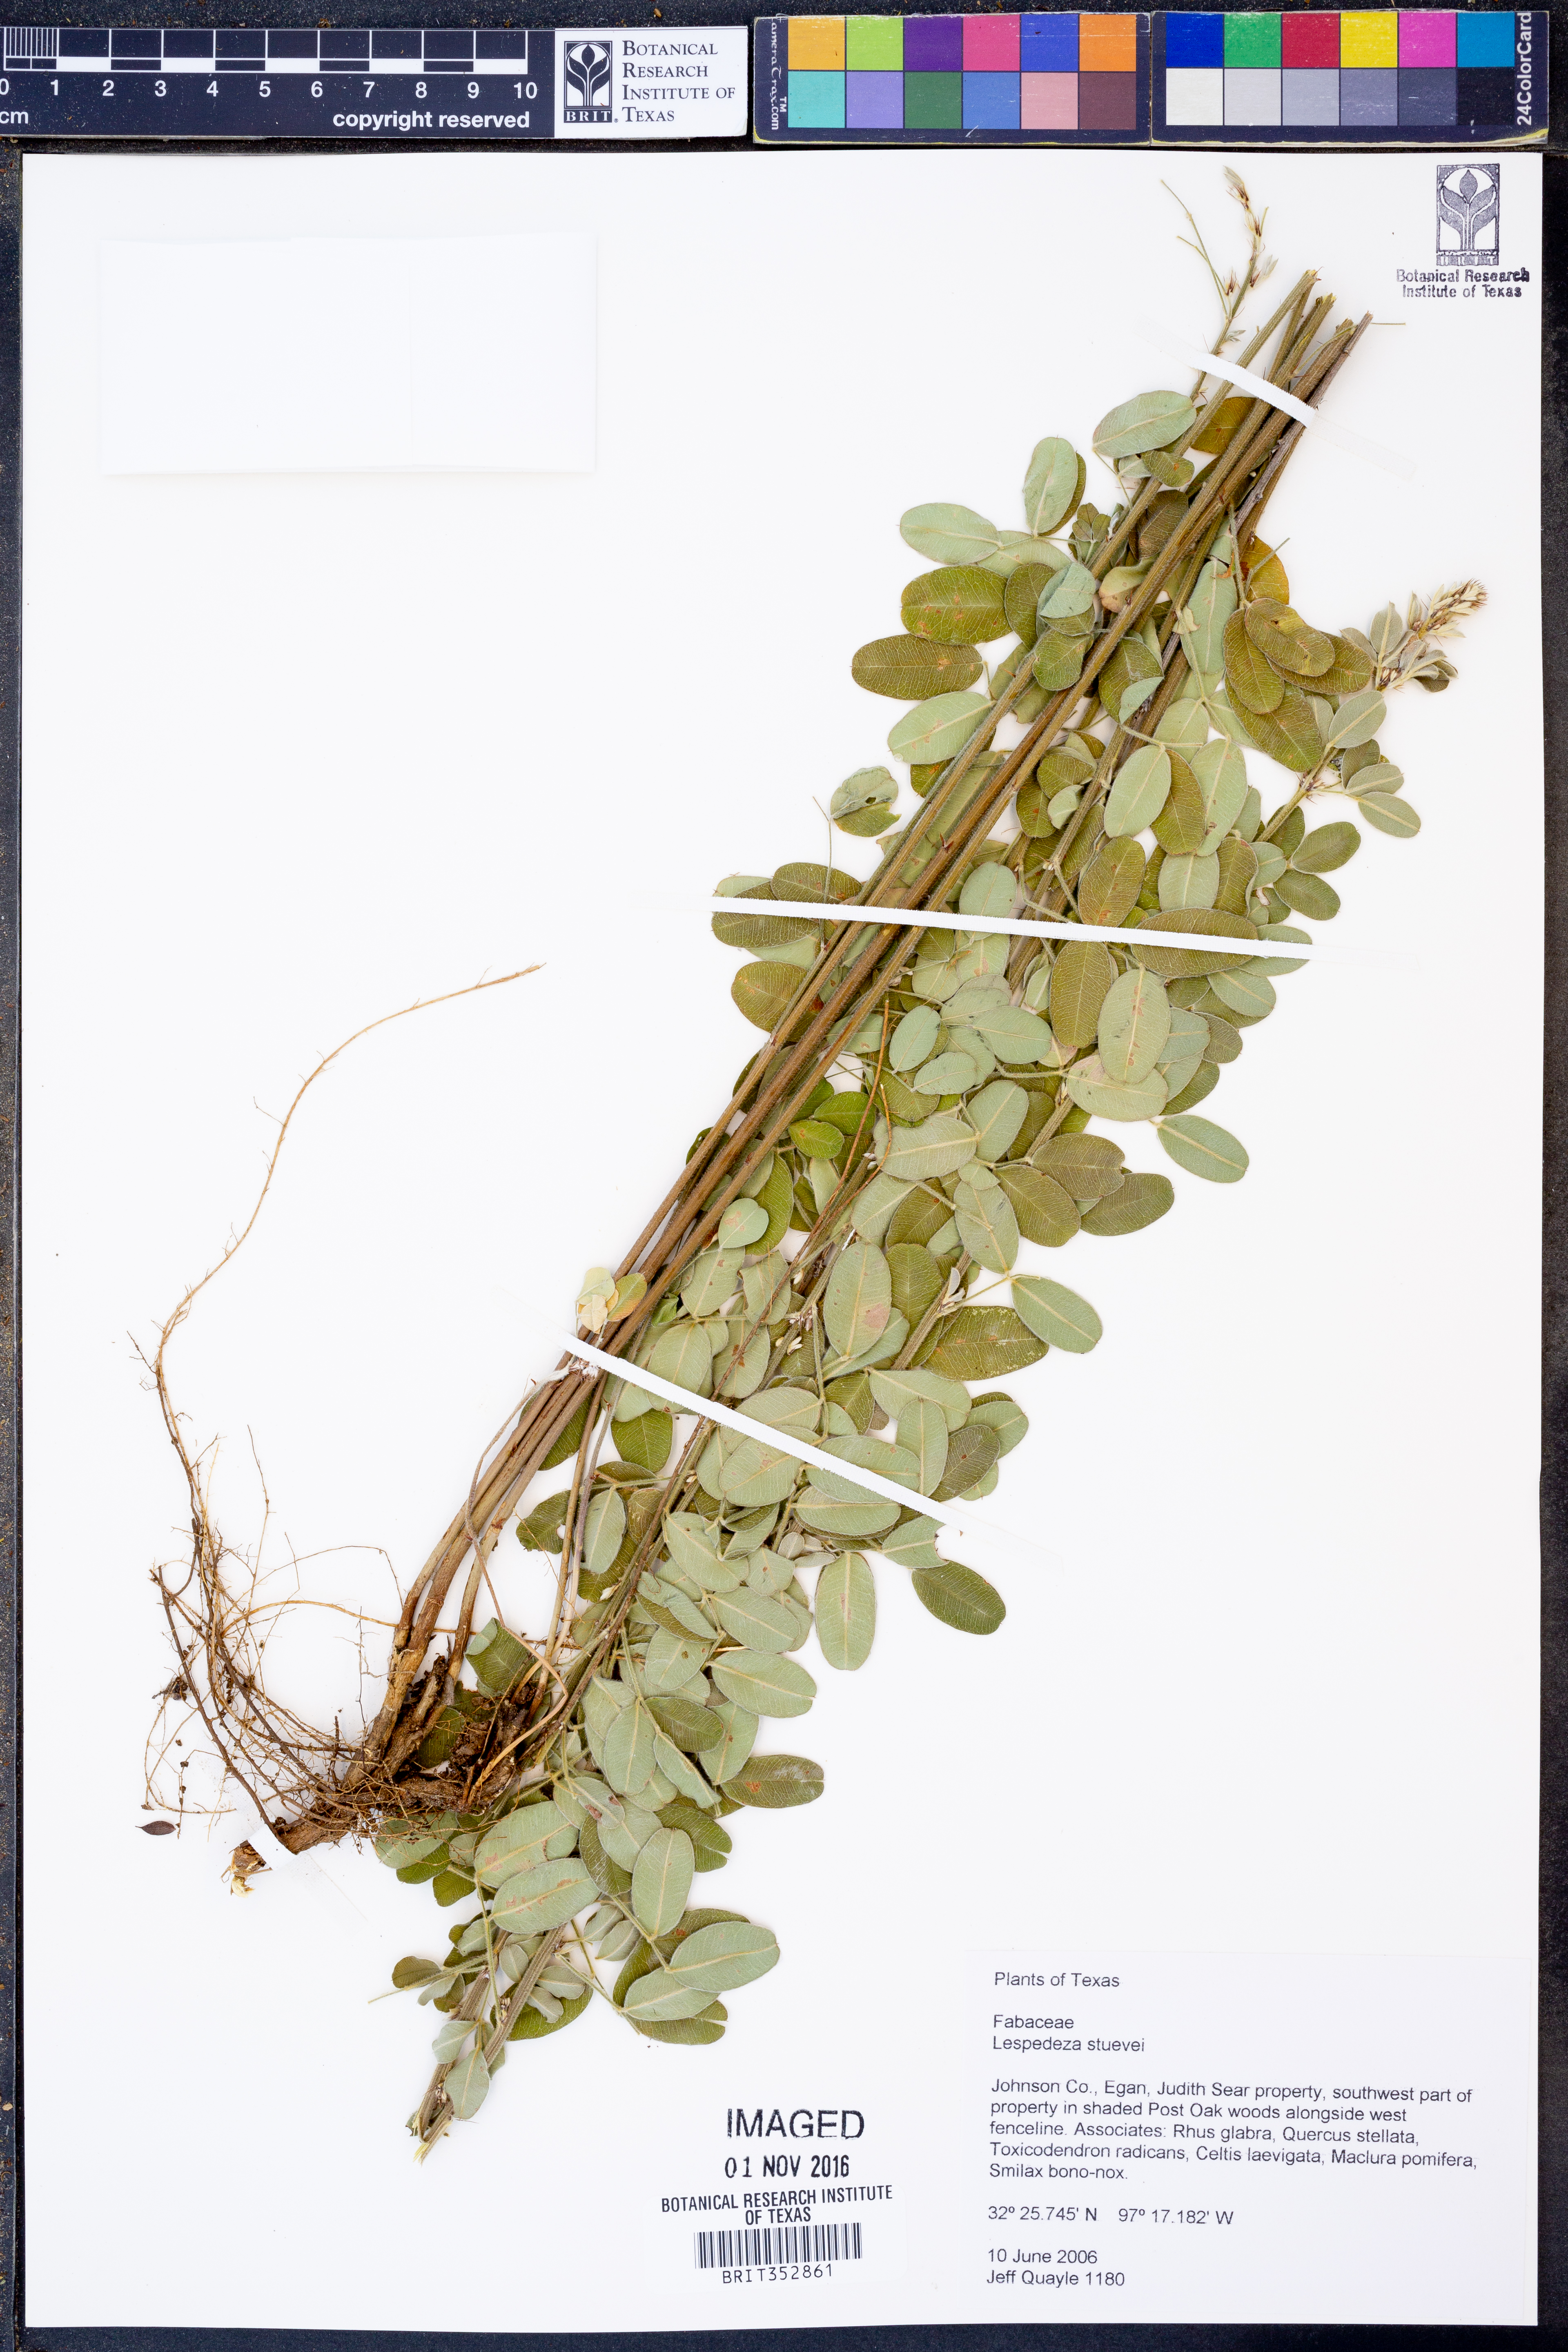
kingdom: Plantae
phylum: Tracheophyta
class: Magnoliopsida
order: Fabales
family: Fabaceae
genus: Lespedeza
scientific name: Lespedeza stuevei
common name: Tall bush-clover
